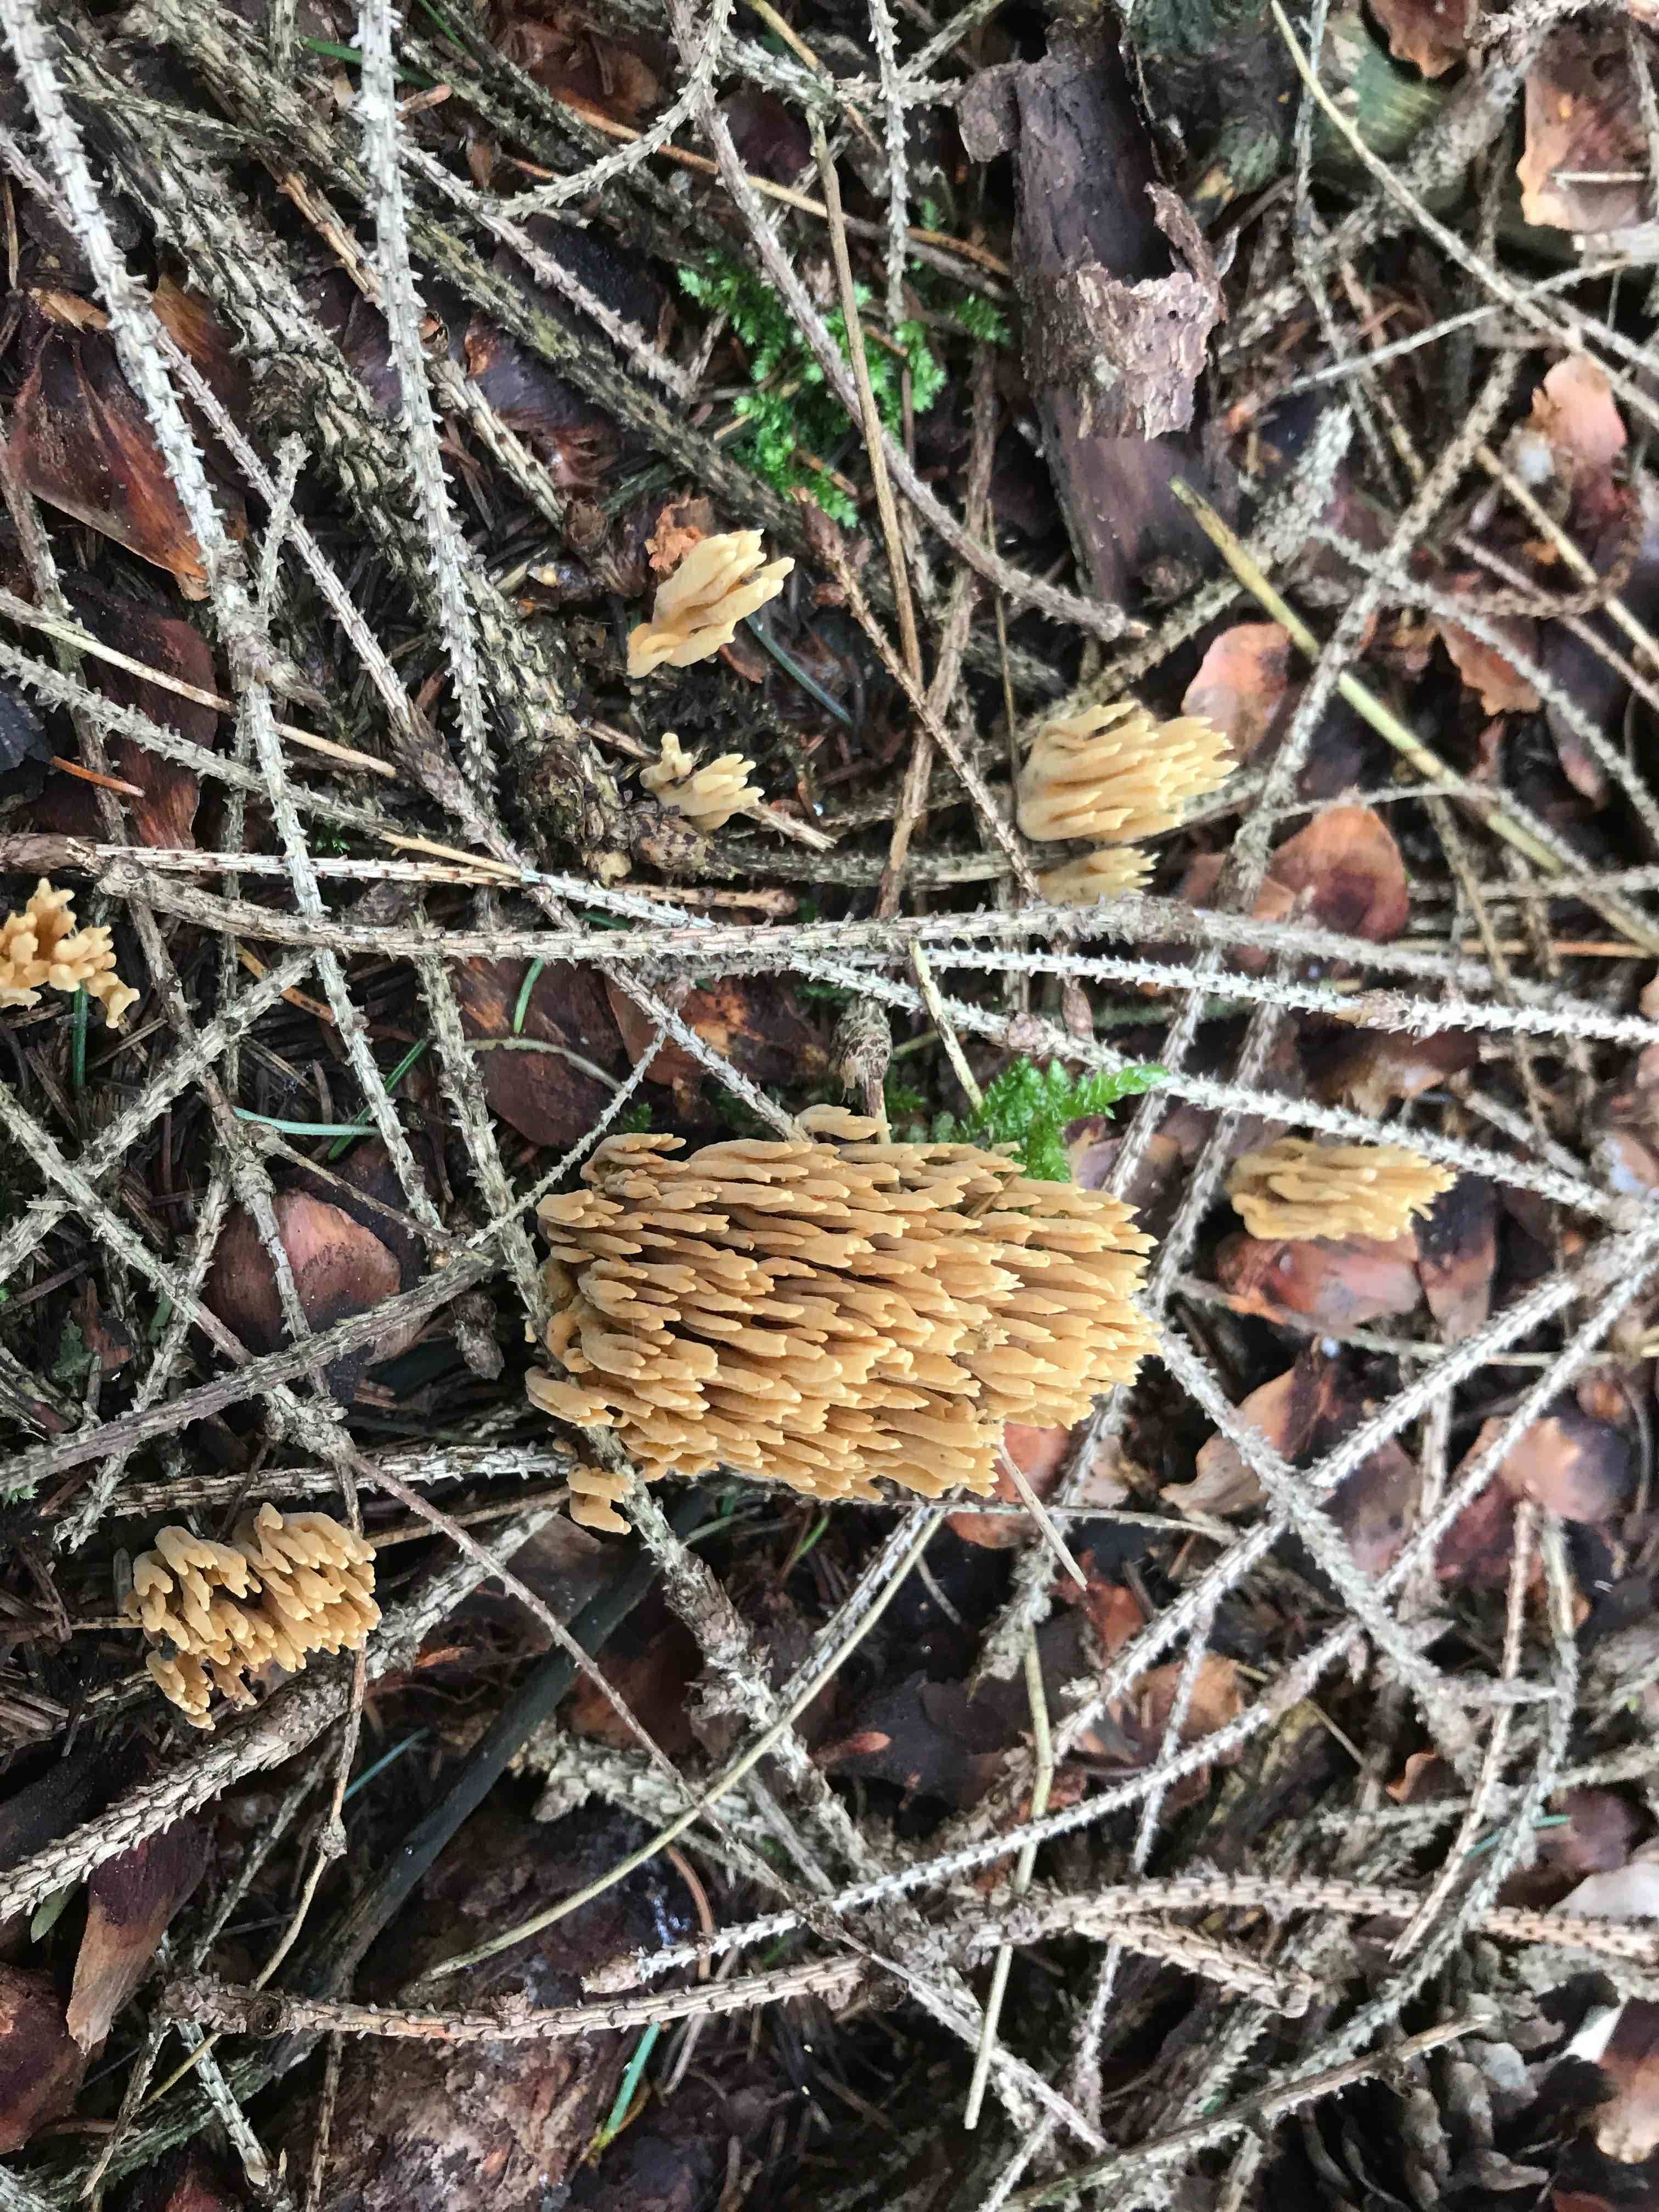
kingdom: Fungi
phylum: Basidiomycota
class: Agaricomycetes
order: Gomphales
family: Gomphaceae
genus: Phaeoclavulina
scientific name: Phaeoclavulina eumorpha
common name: gran-koralsvamp
